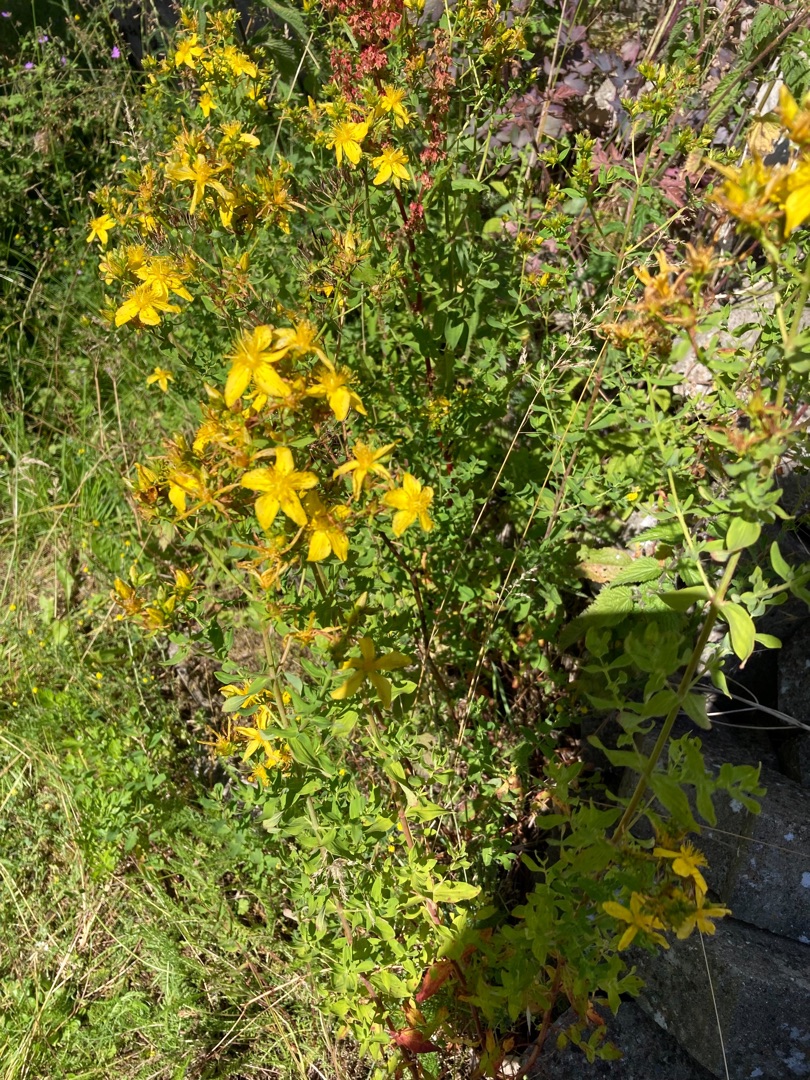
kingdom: Plantae
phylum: Tracheophyta
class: Magnoliopsida
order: Malpighiales
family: Hypericaceae
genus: Hypericum
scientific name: Hypericum perforatum
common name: Prikbladet perikon
